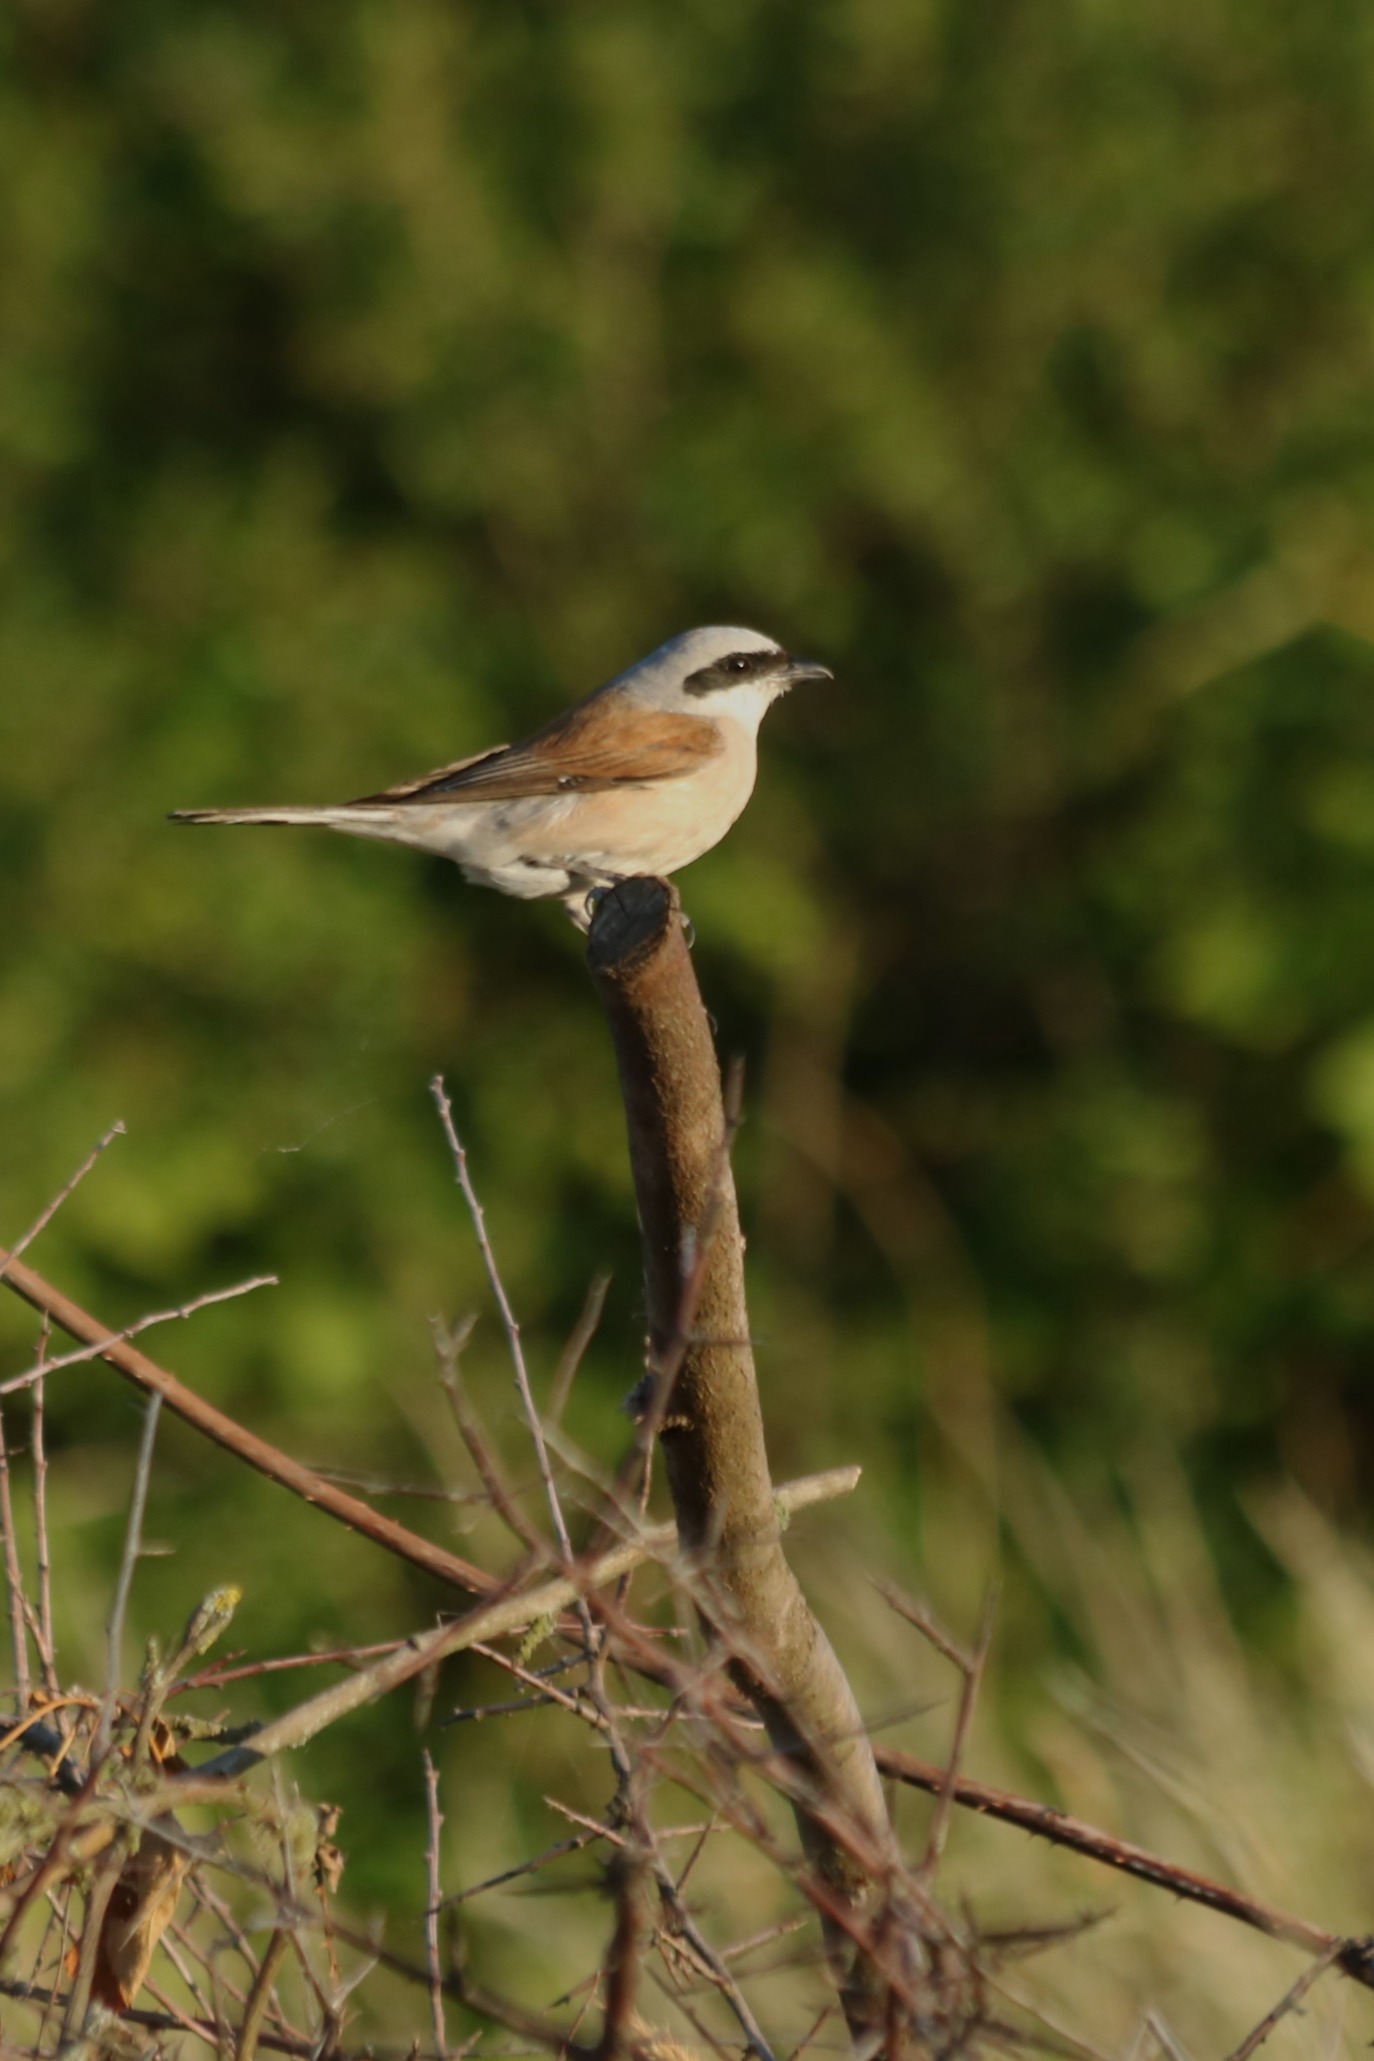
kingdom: Animalia
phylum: Chordata
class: Aves
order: Passeriformes
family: Laniidae
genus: Lanius
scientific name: Lanius collurio
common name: Rødrygget tornskade
